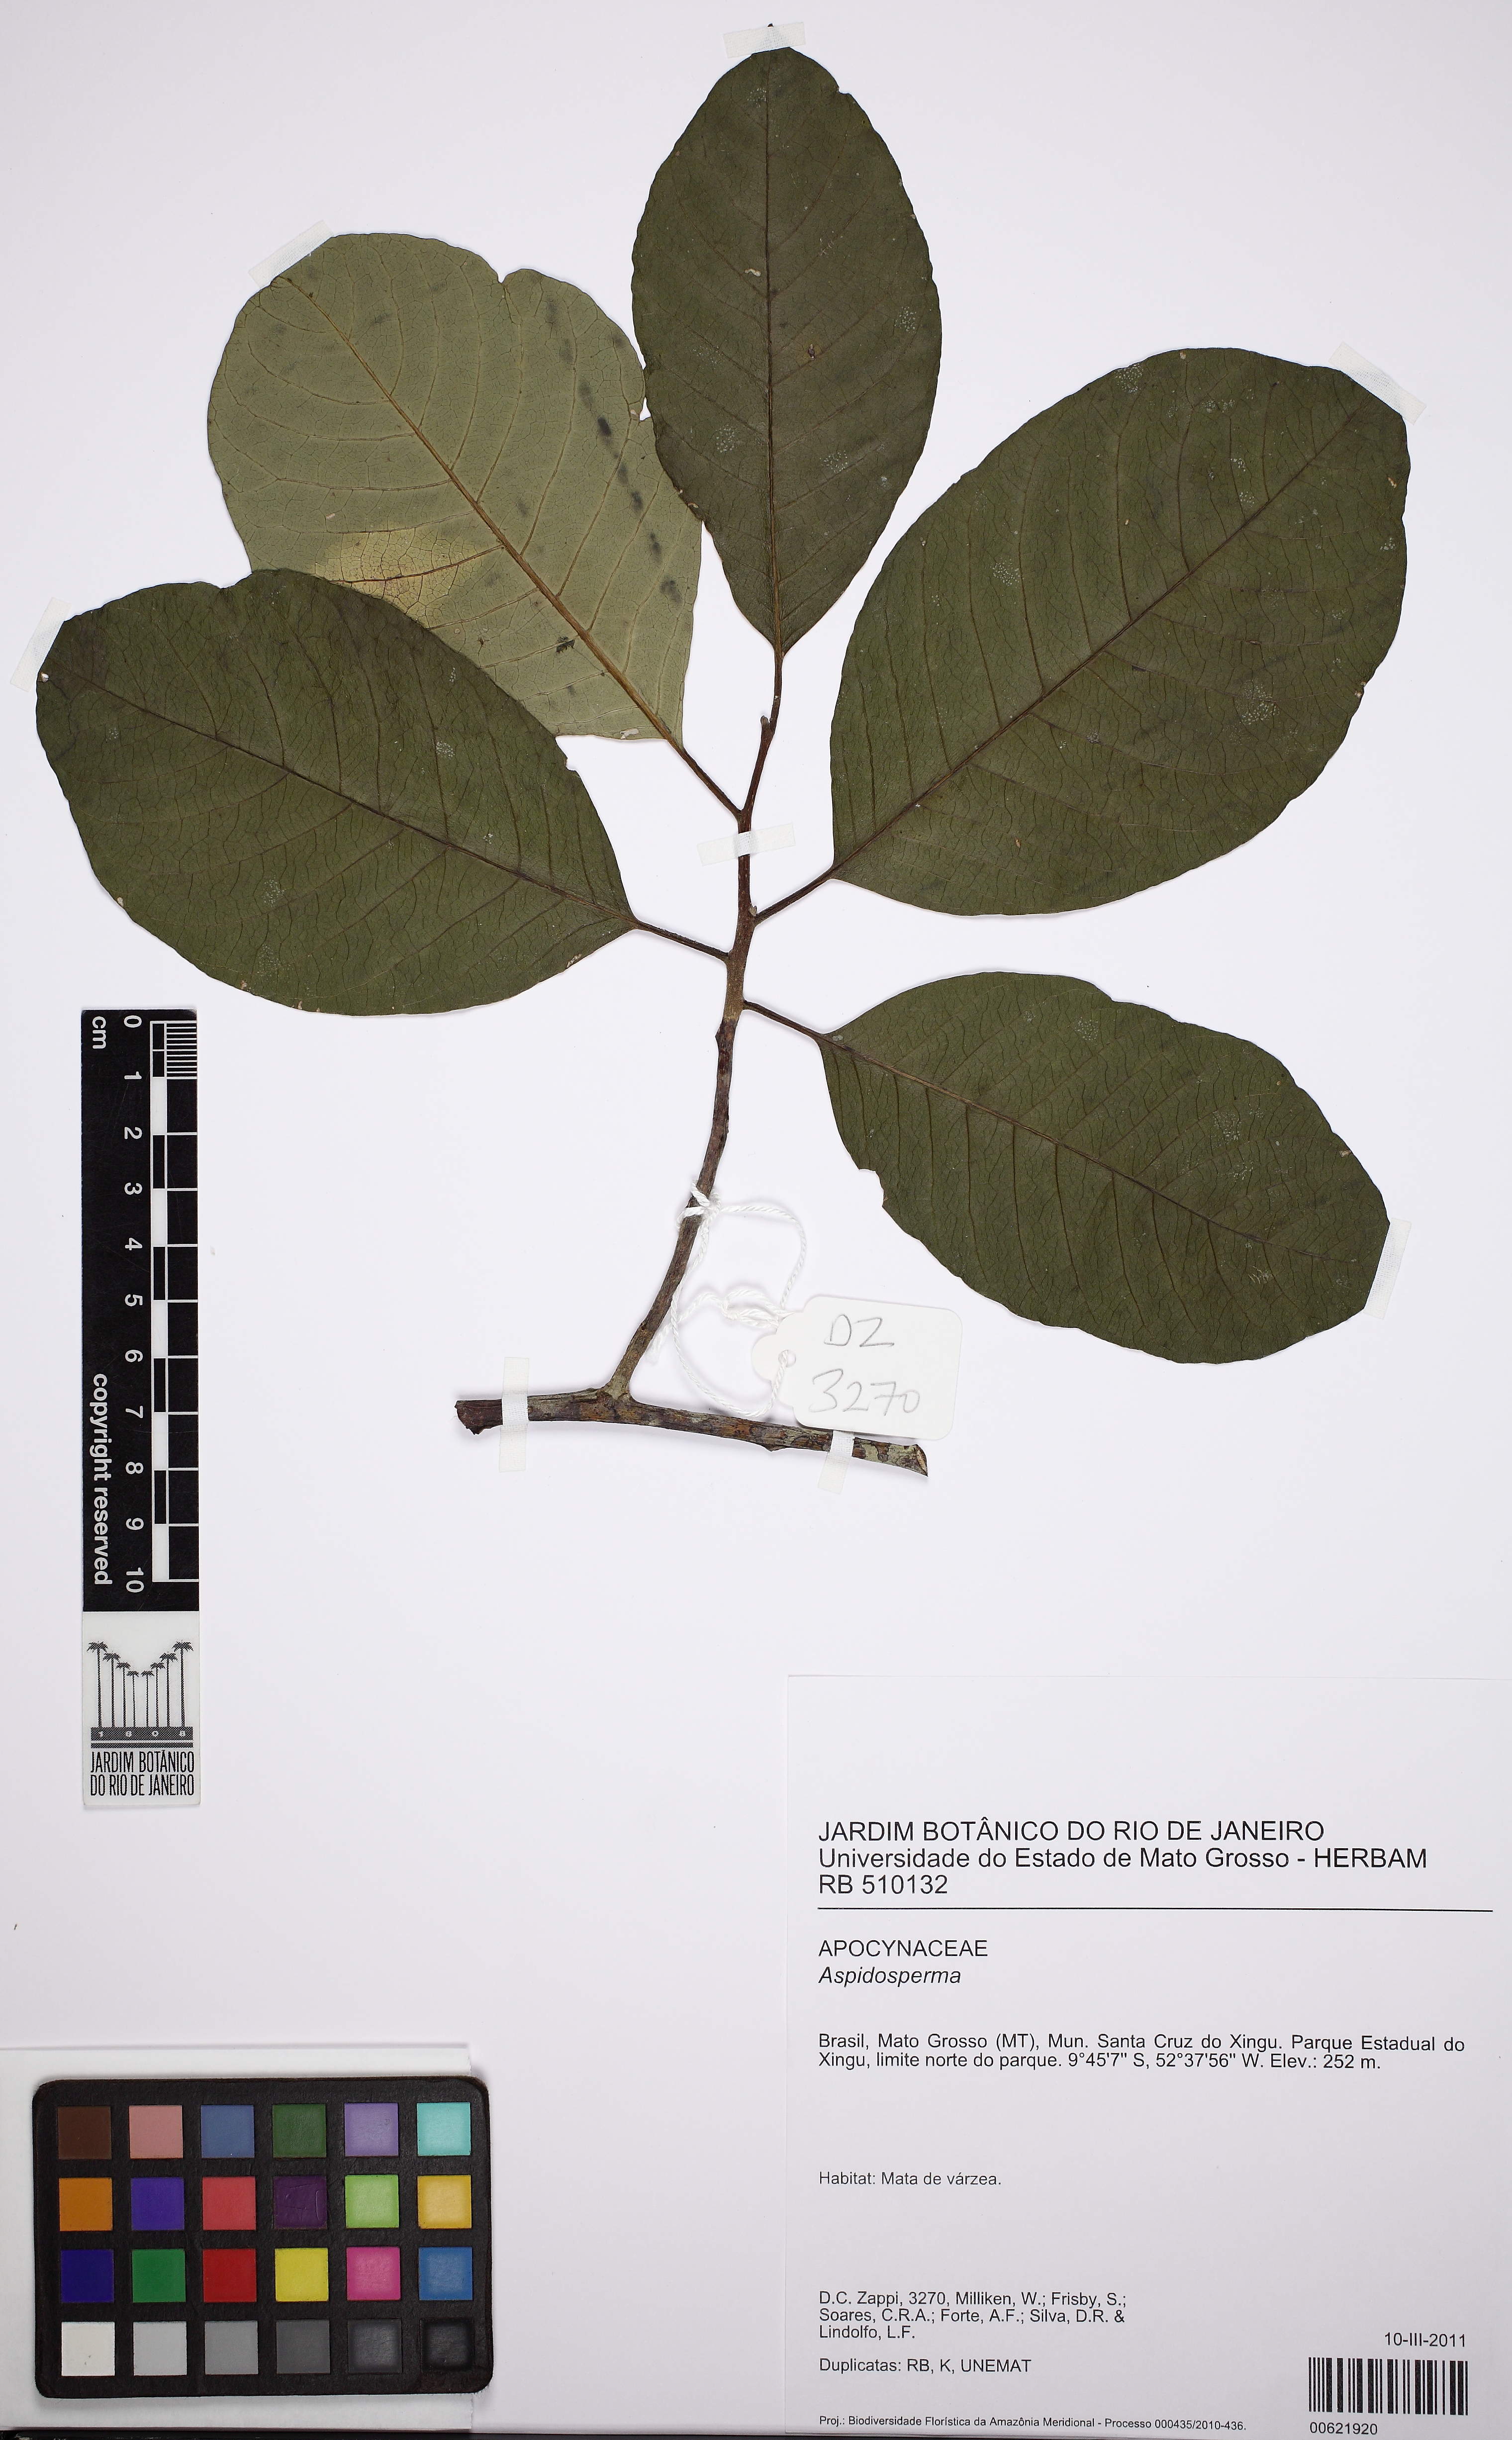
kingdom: Plantae
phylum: Tracheophyta
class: Magnoliopsida
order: Gentianales
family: Apocynaceae
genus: Aspidosperma
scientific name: Aspidosperma subincanum
